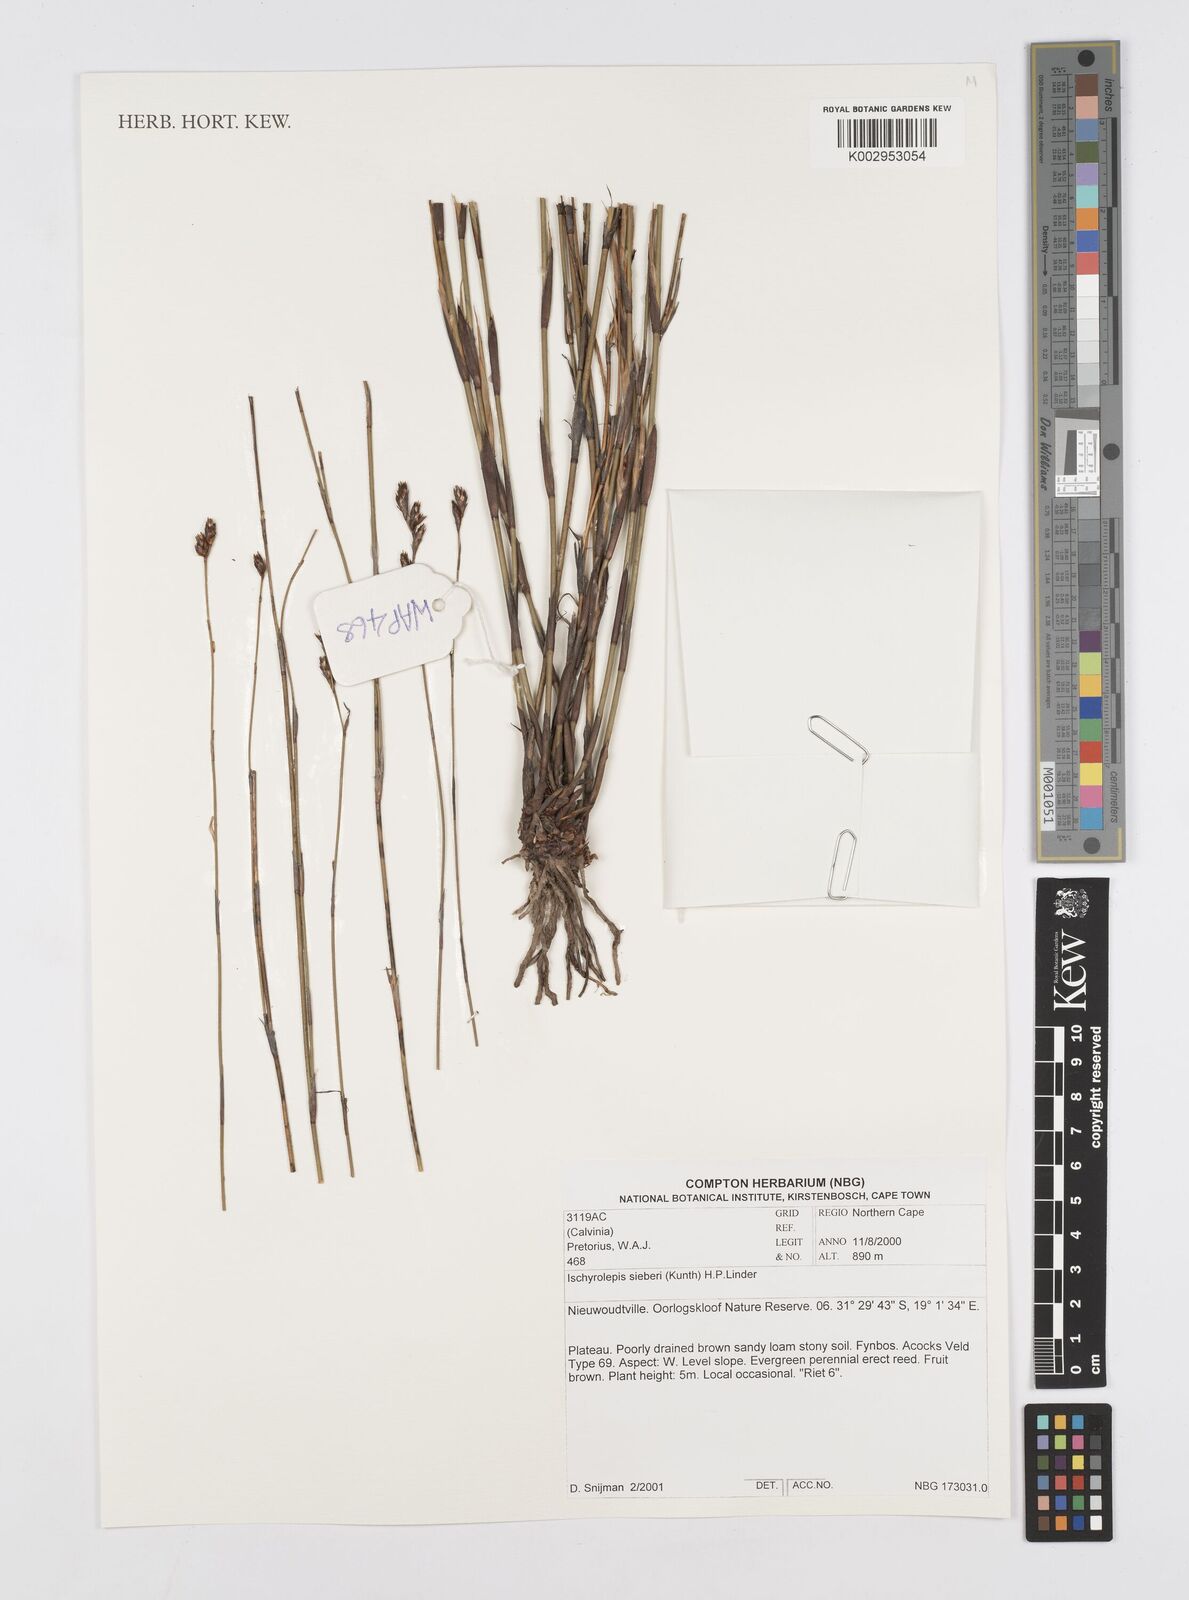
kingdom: Plantae
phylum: Tracheophyta
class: Liliopsida
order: Poales
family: Restionaceae
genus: Restio
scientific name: Restio sieberi
